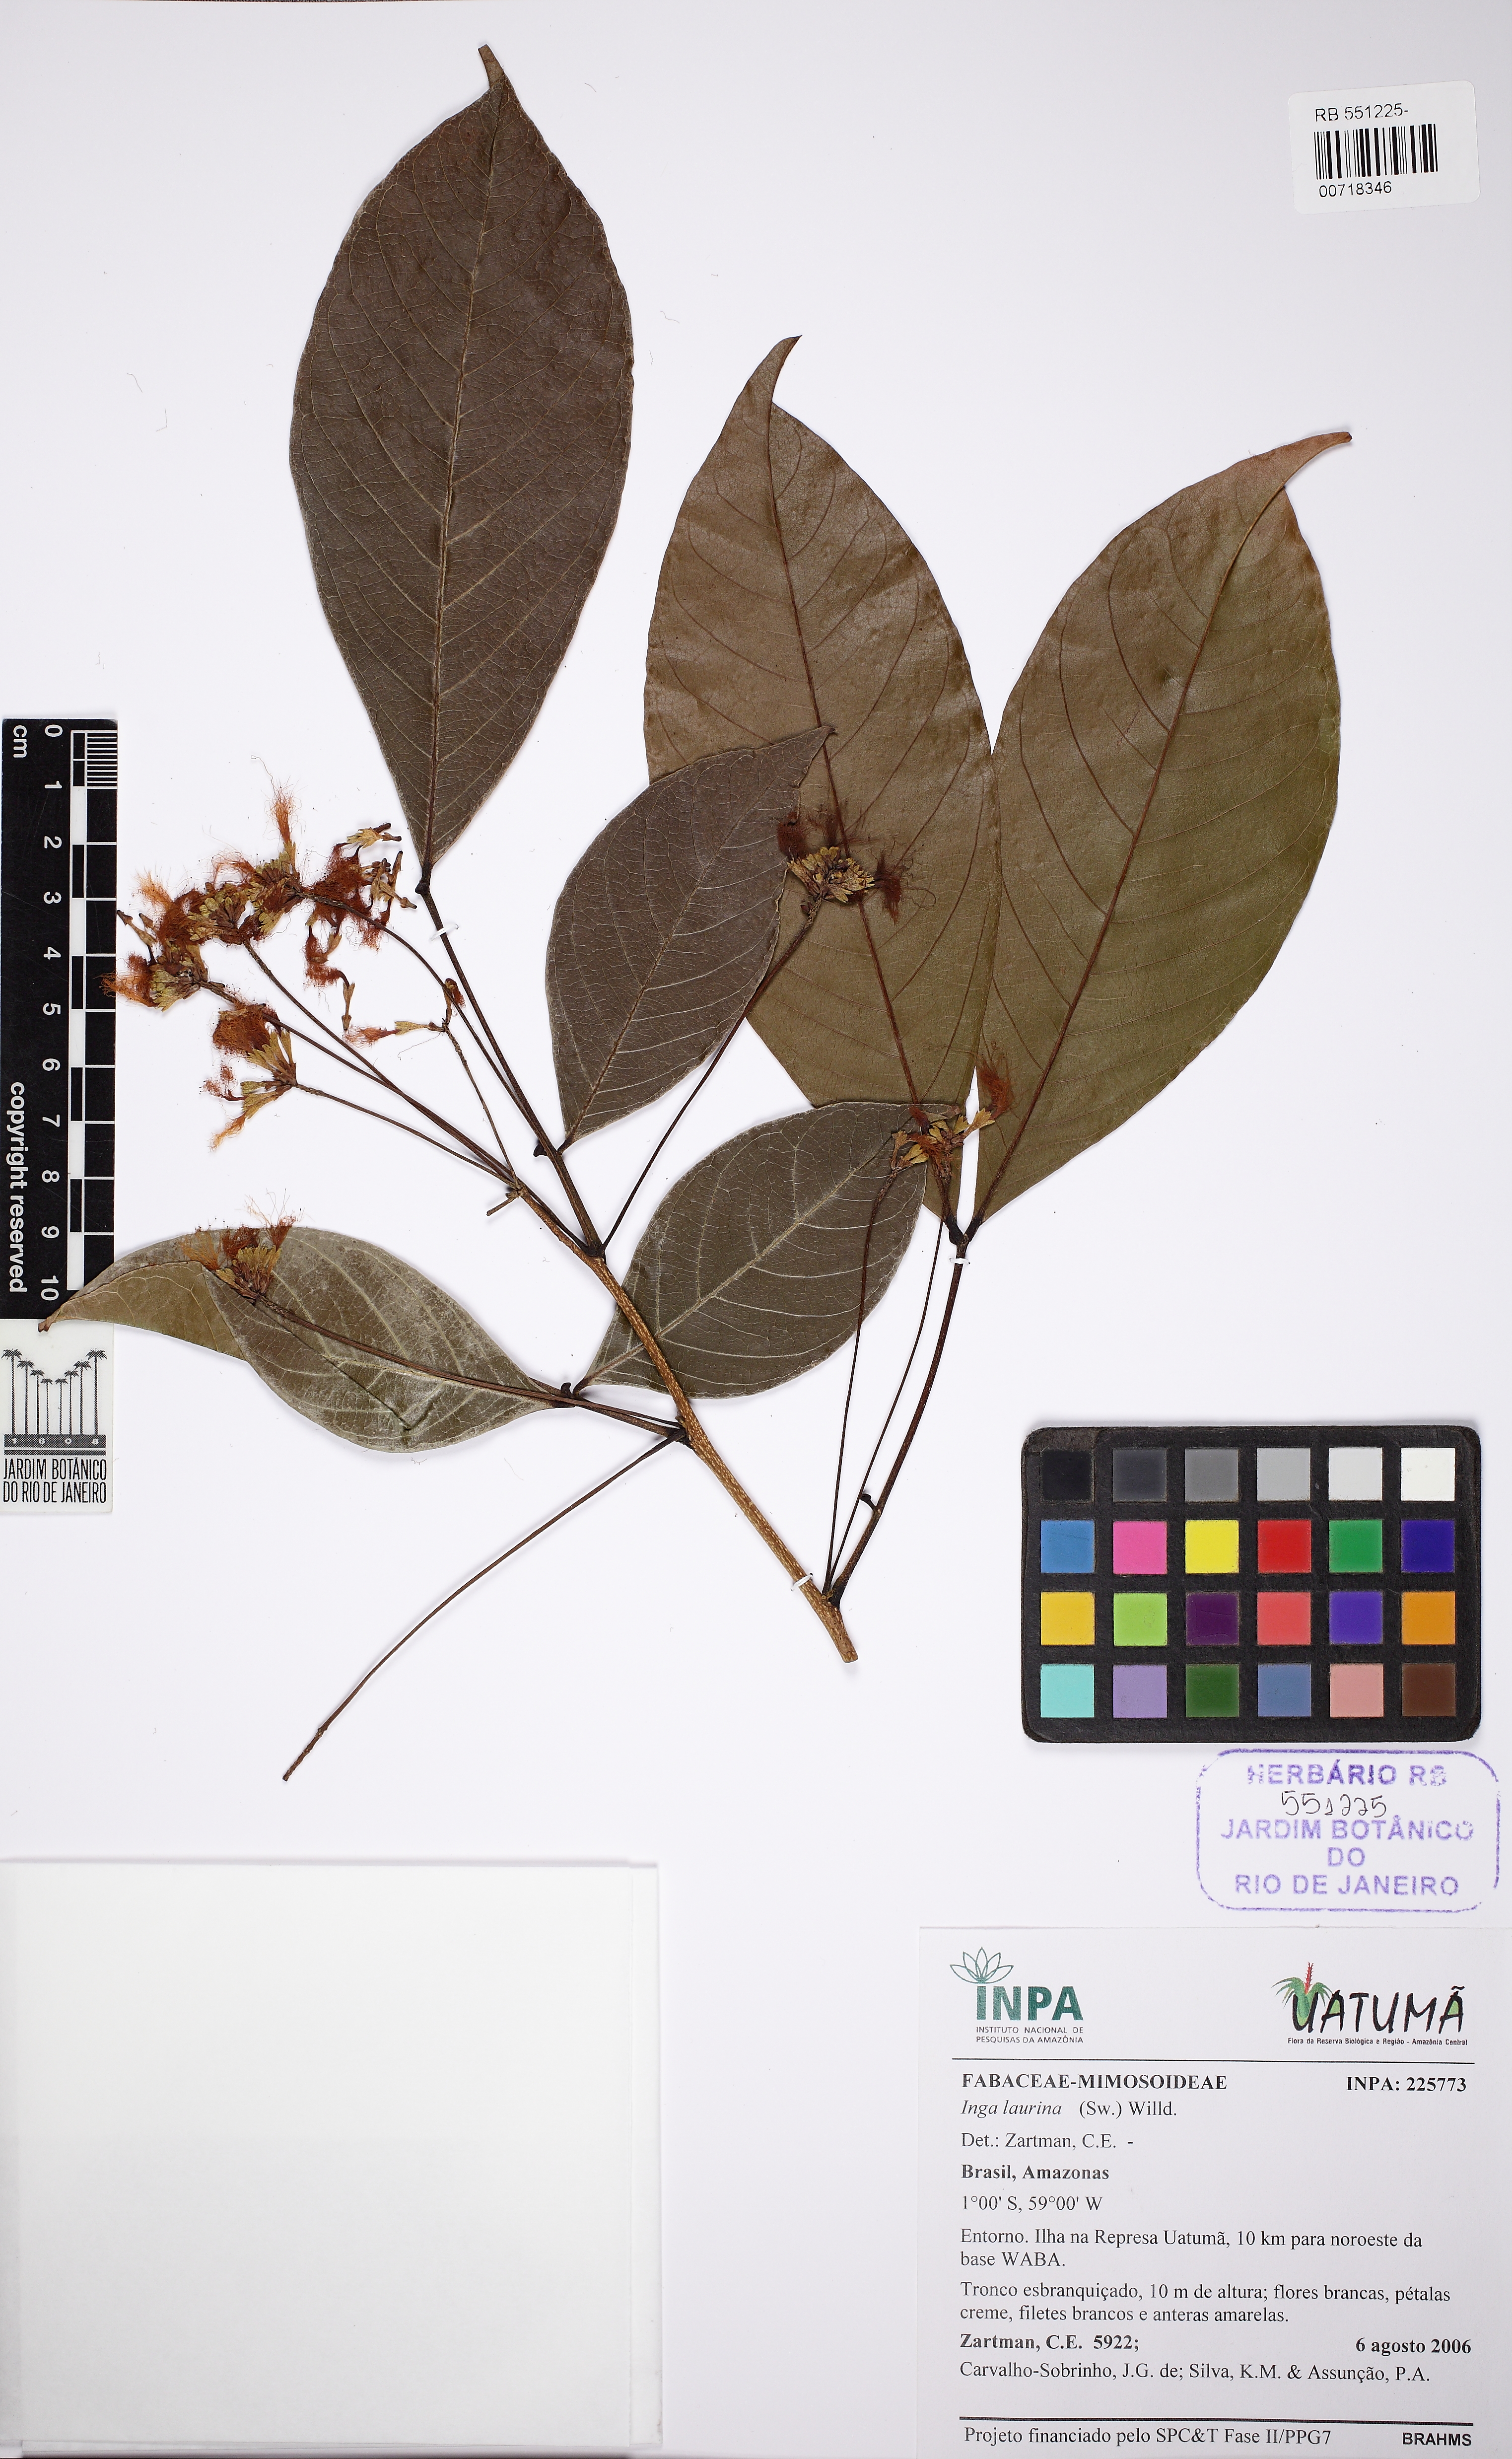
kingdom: Plantae
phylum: Tracheophyta
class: Magnoliopsida
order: Fabales
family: Fabaceae
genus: Inga
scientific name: Inga laurina
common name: Red wood
